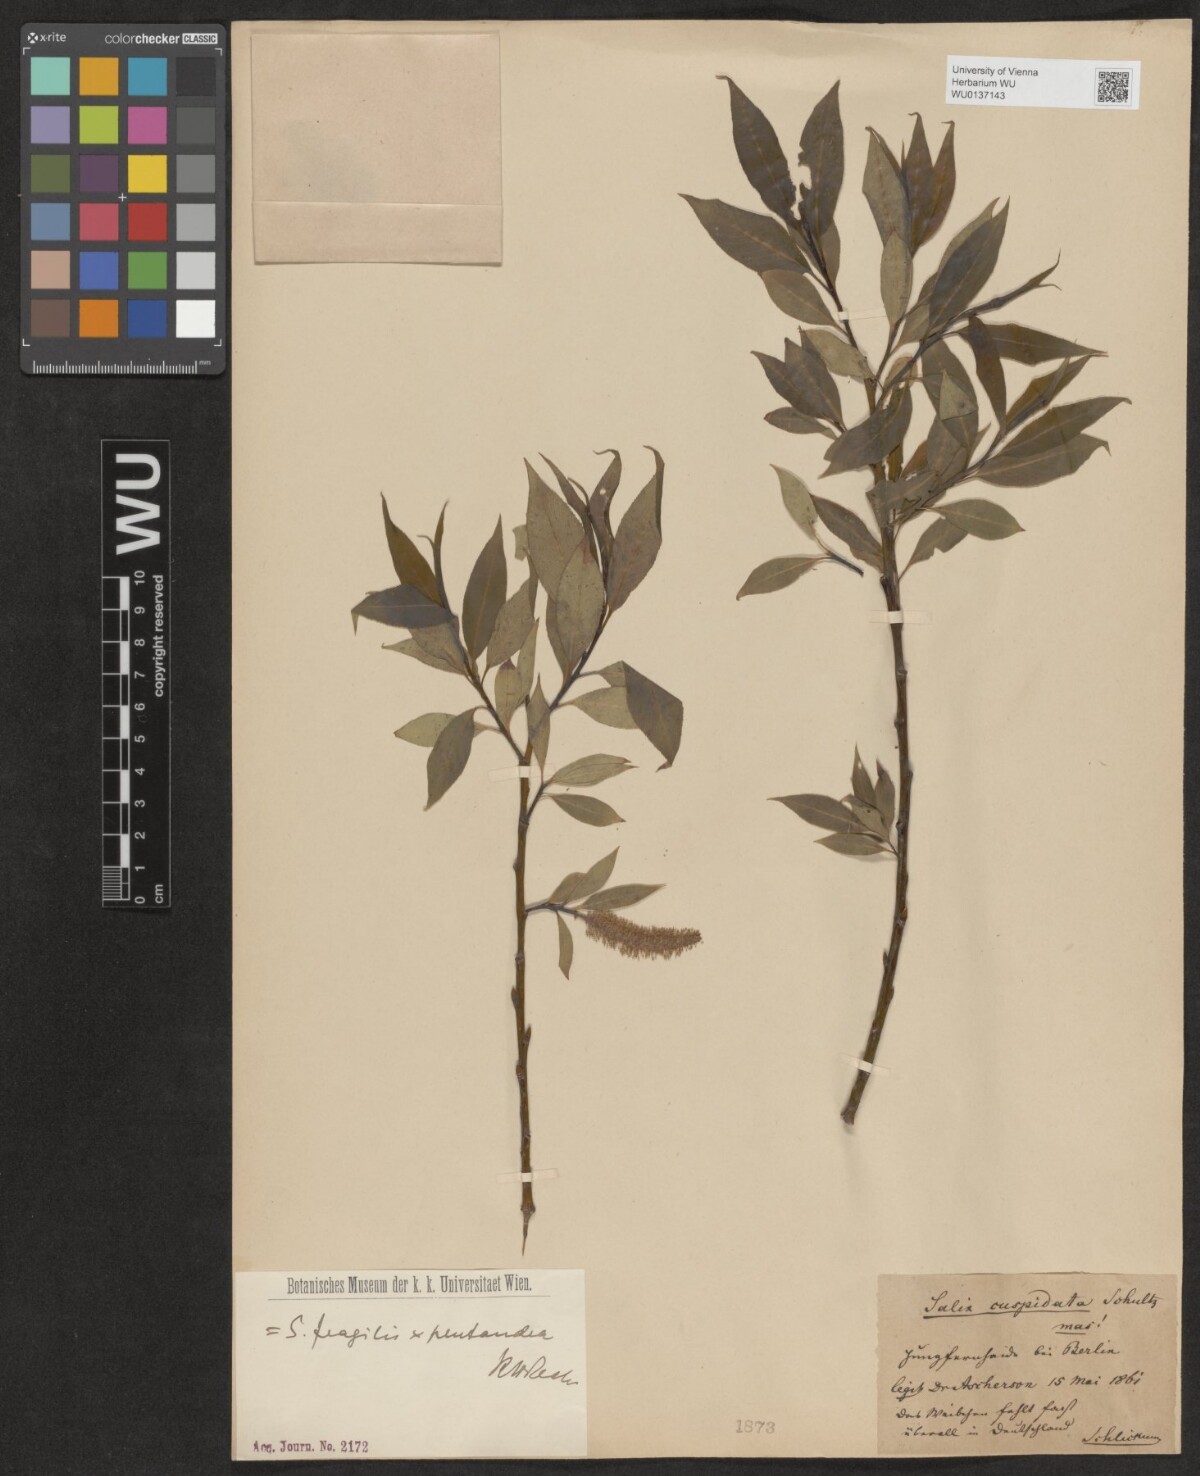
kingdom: Plantae
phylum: Tracheophyta
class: Magnoliopsida
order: Malpighiales
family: Salicaceae
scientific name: Salicaceae
